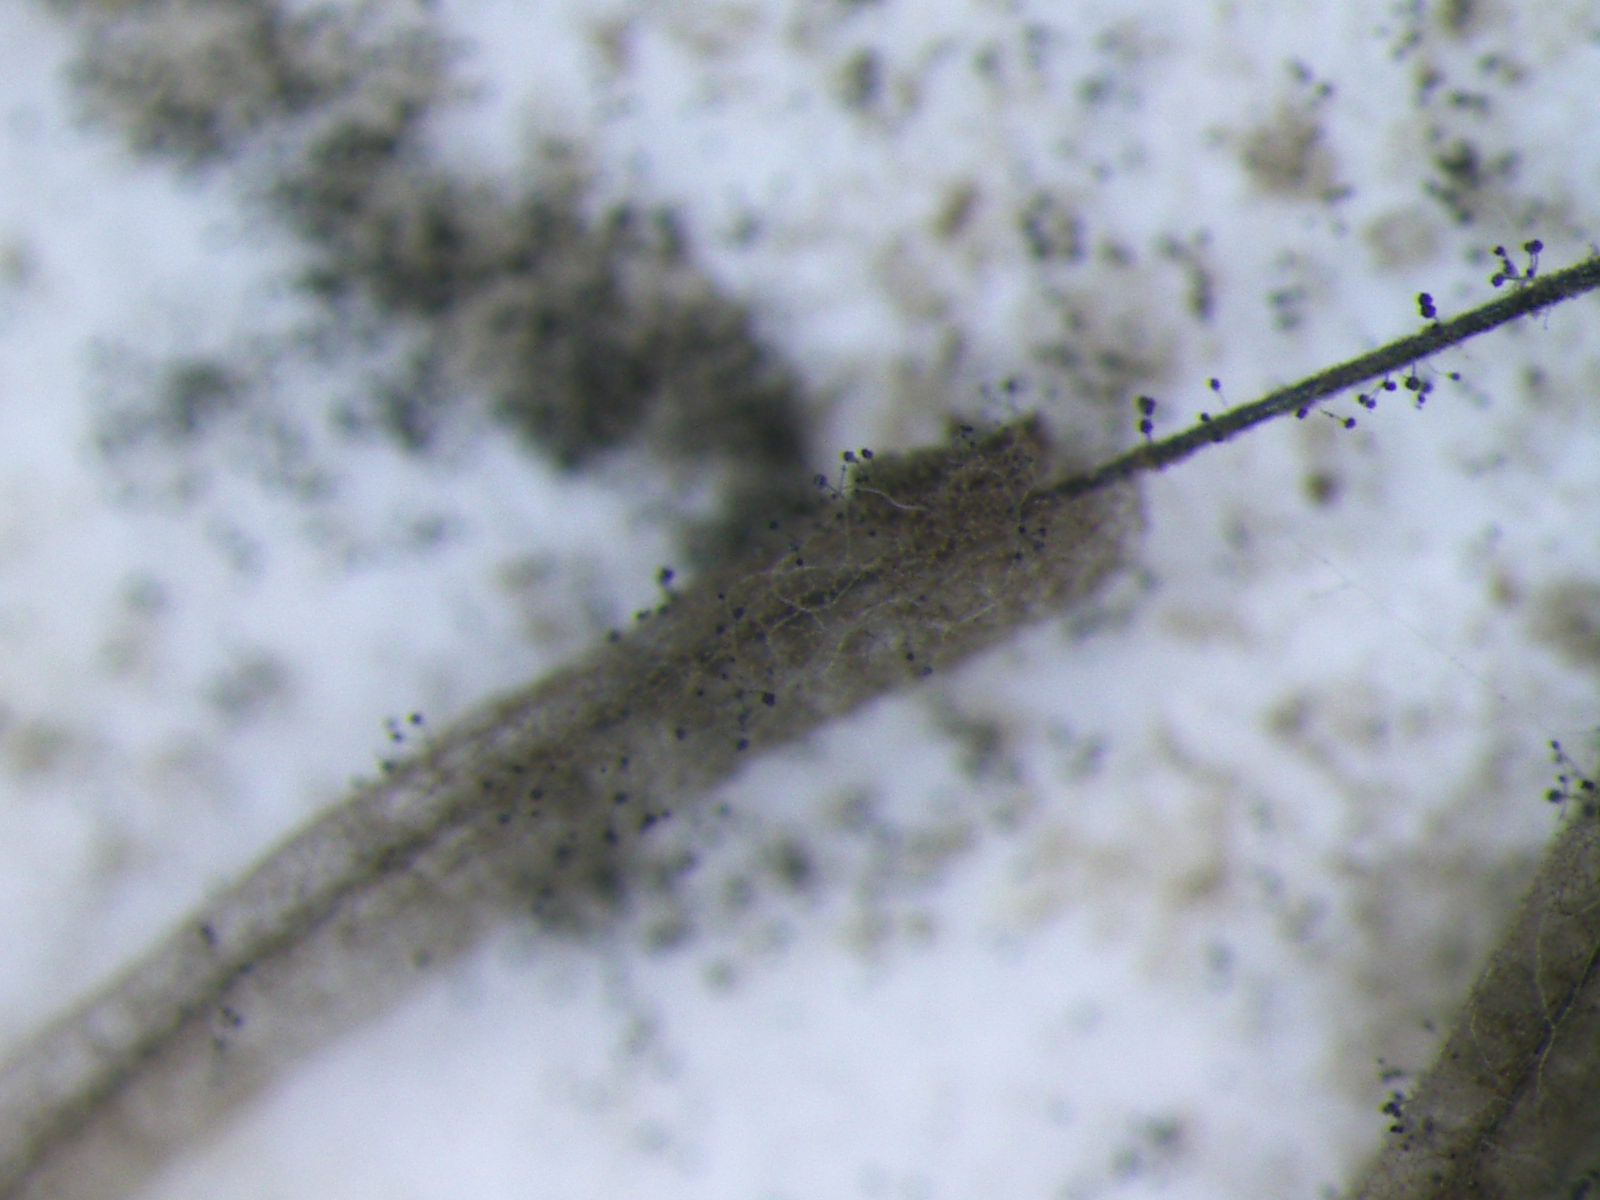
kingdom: Fungi
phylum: Ascomycota
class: Sordariomycetes
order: Hypocreales
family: Stachybotryaceae
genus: Stachybotrys
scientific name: Stachybotrys
